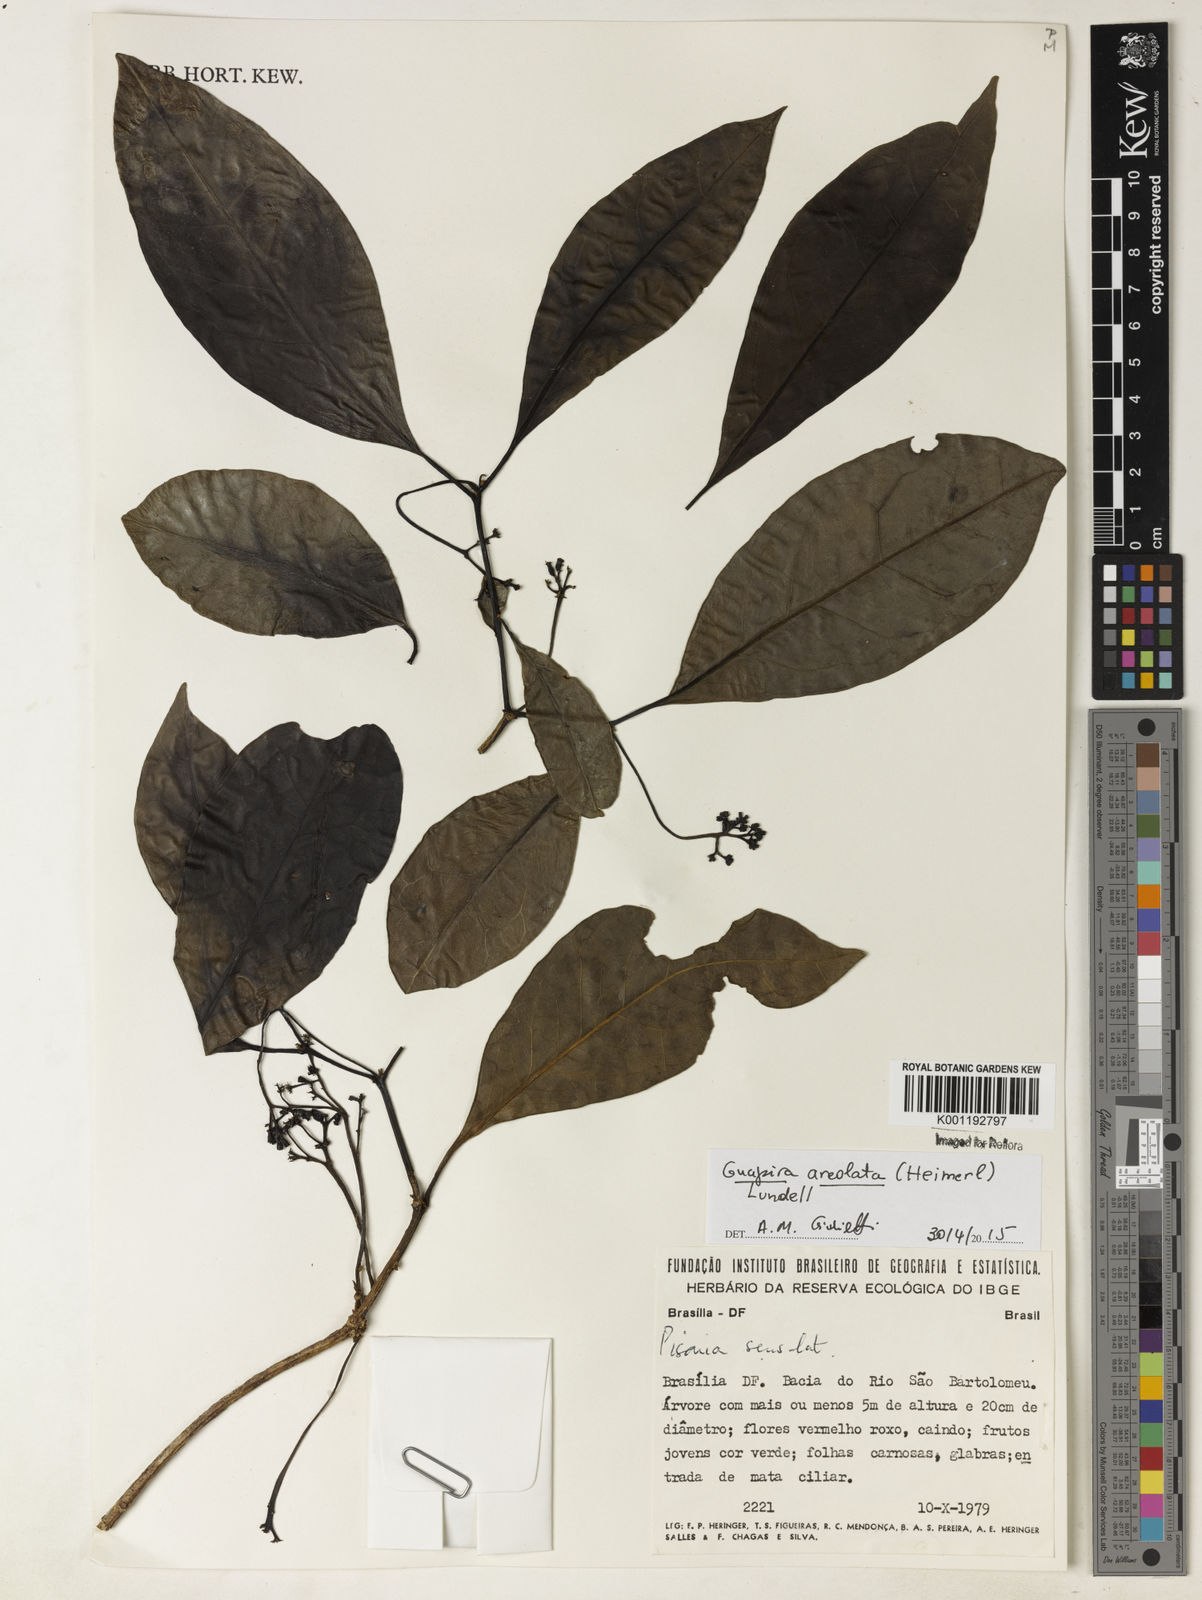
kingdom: Plantae
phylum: Tracheophyta
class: Magnoliopsida
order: Caryophyllales
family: Nyctaginaceae
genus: Guapira
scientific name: Guapira areolata
